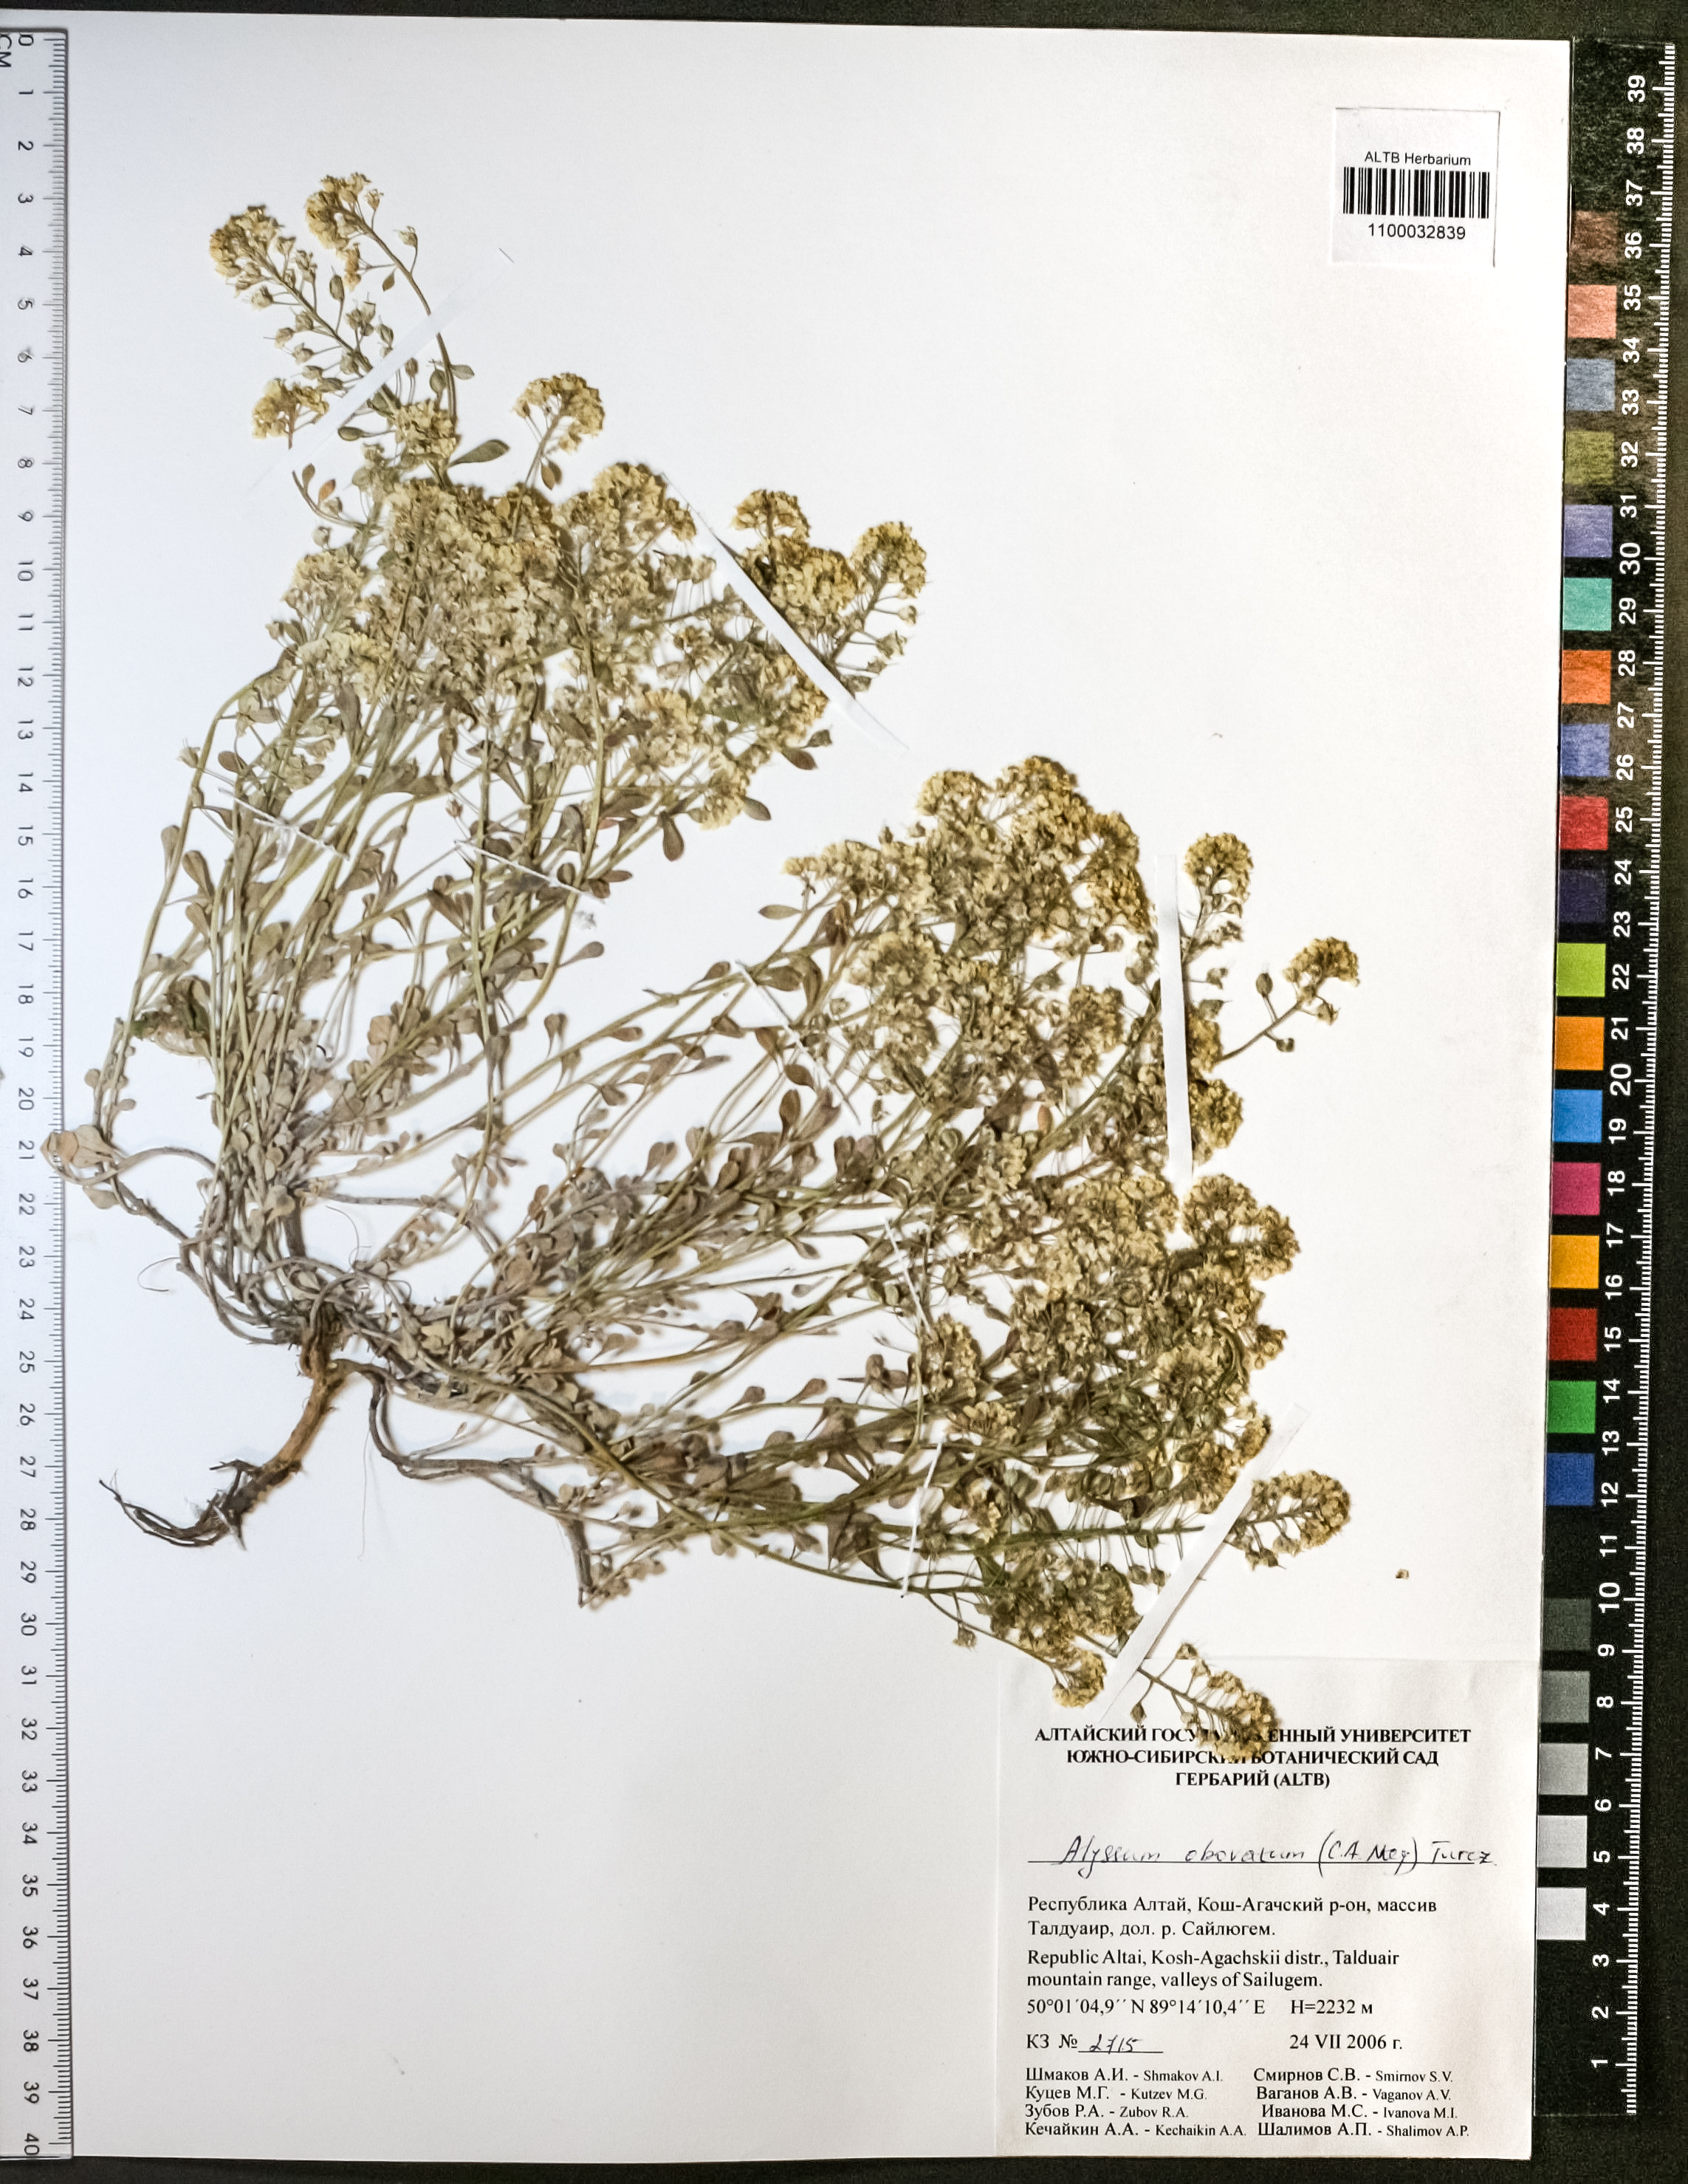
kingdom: Plantae
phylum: Tracheophyta
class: Magnoliopsida
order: Brassicales
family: Brassicaceae
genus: Odontarrhena
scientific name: Odontarrhena obovata
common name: American alyssum
